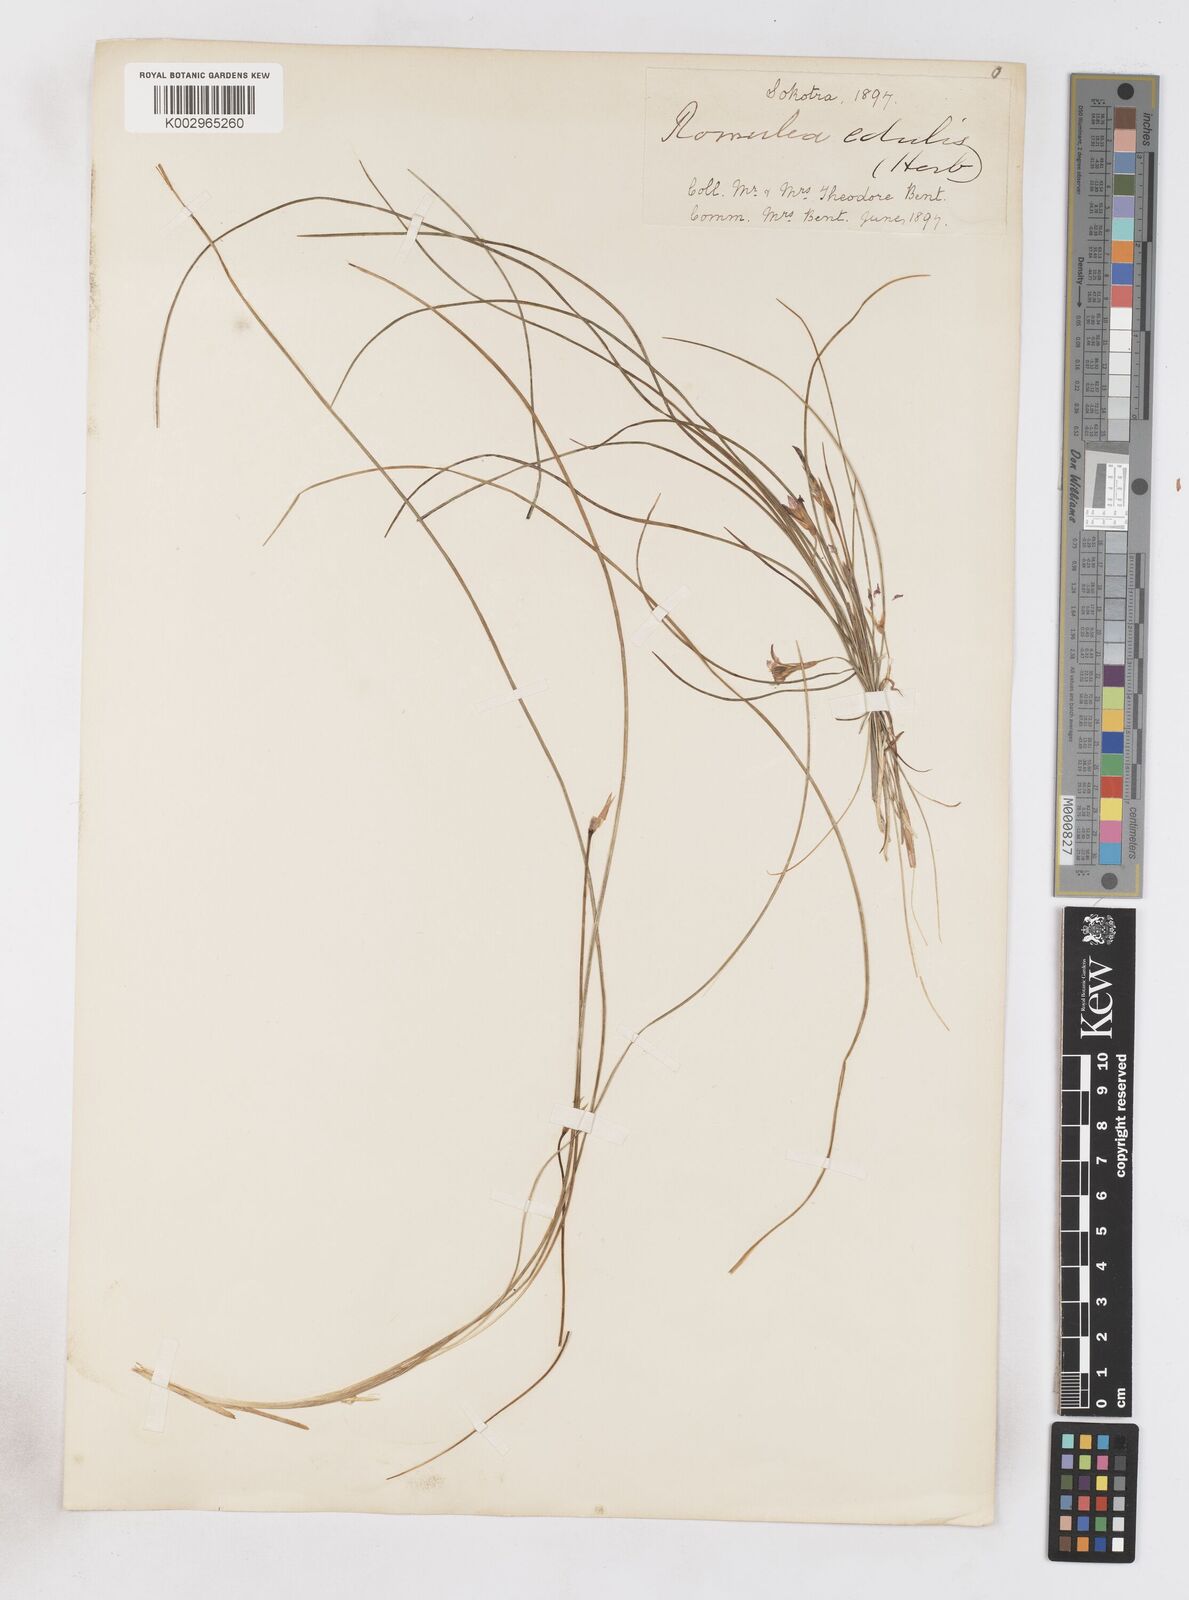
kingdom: Plantae
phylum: Tracheophyta
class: Liliopsida
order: Asparagales
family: Iridaceae
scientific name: Iridaceae
